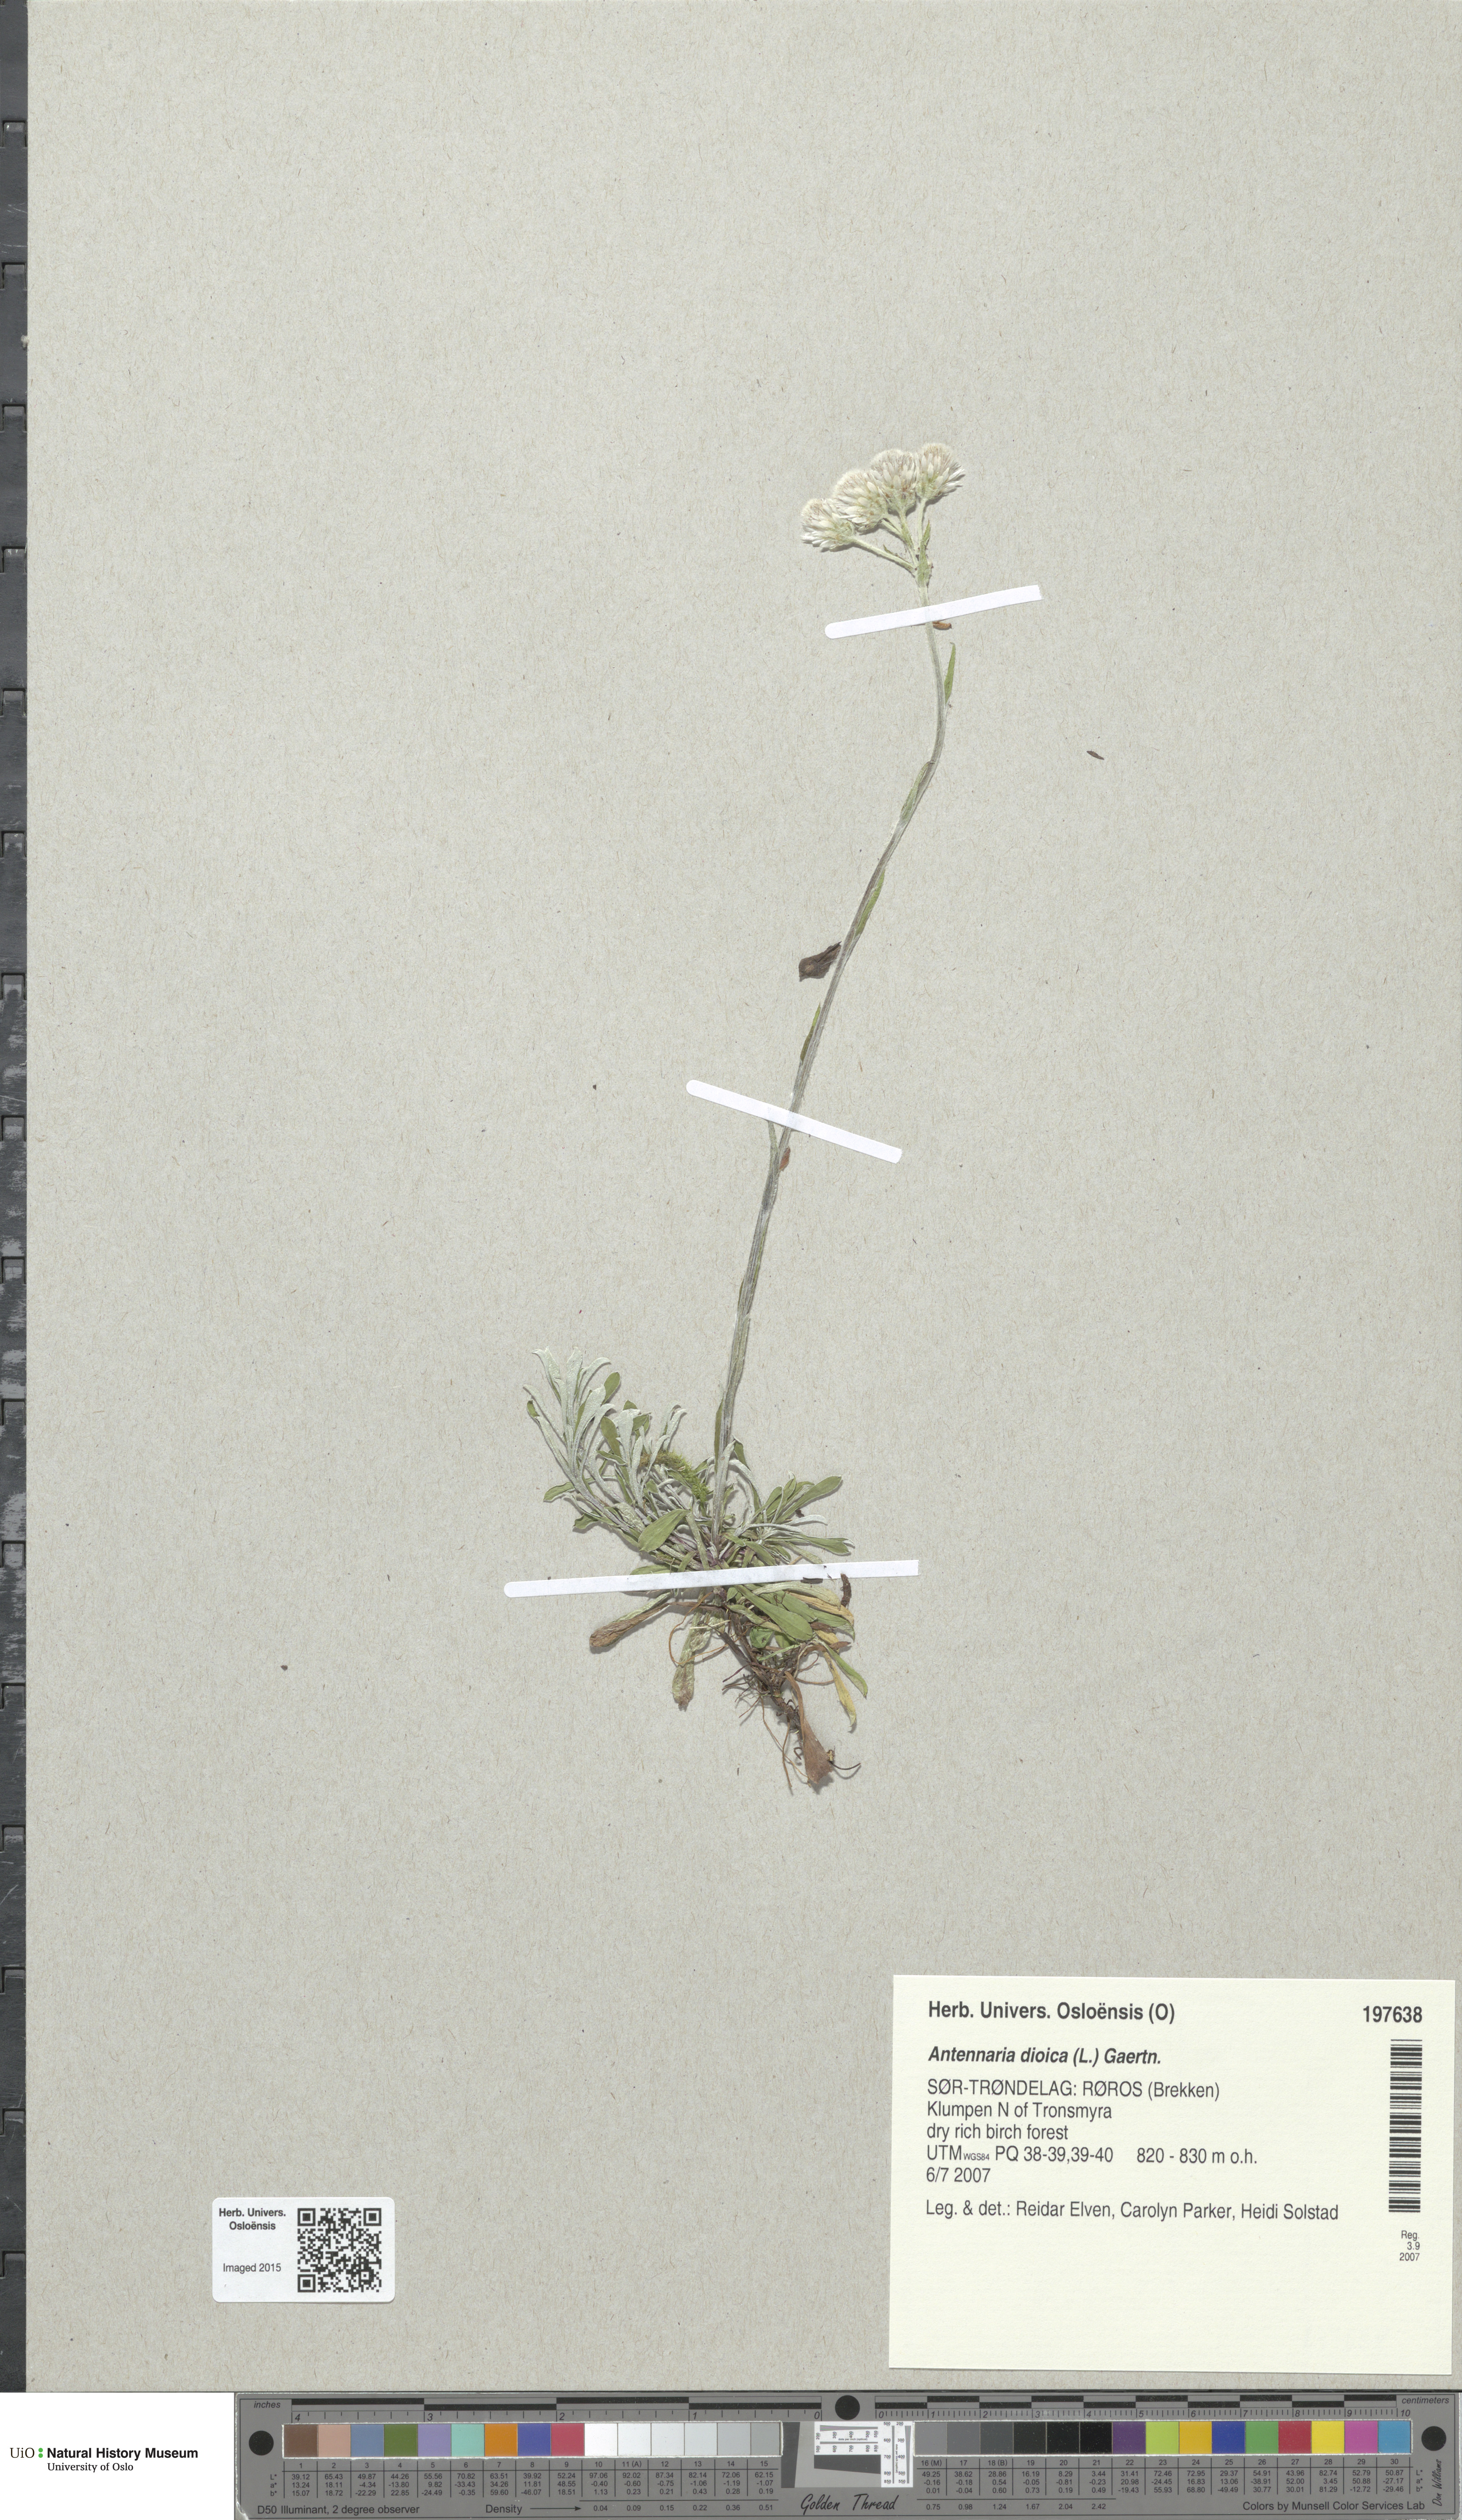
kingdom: Plantae
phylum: Tracheophyta
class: Magnoliopsida
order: Asterales
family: Asteraceae
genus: Antennaria
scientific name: Antennaria dioica
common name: Mountain everlasting
